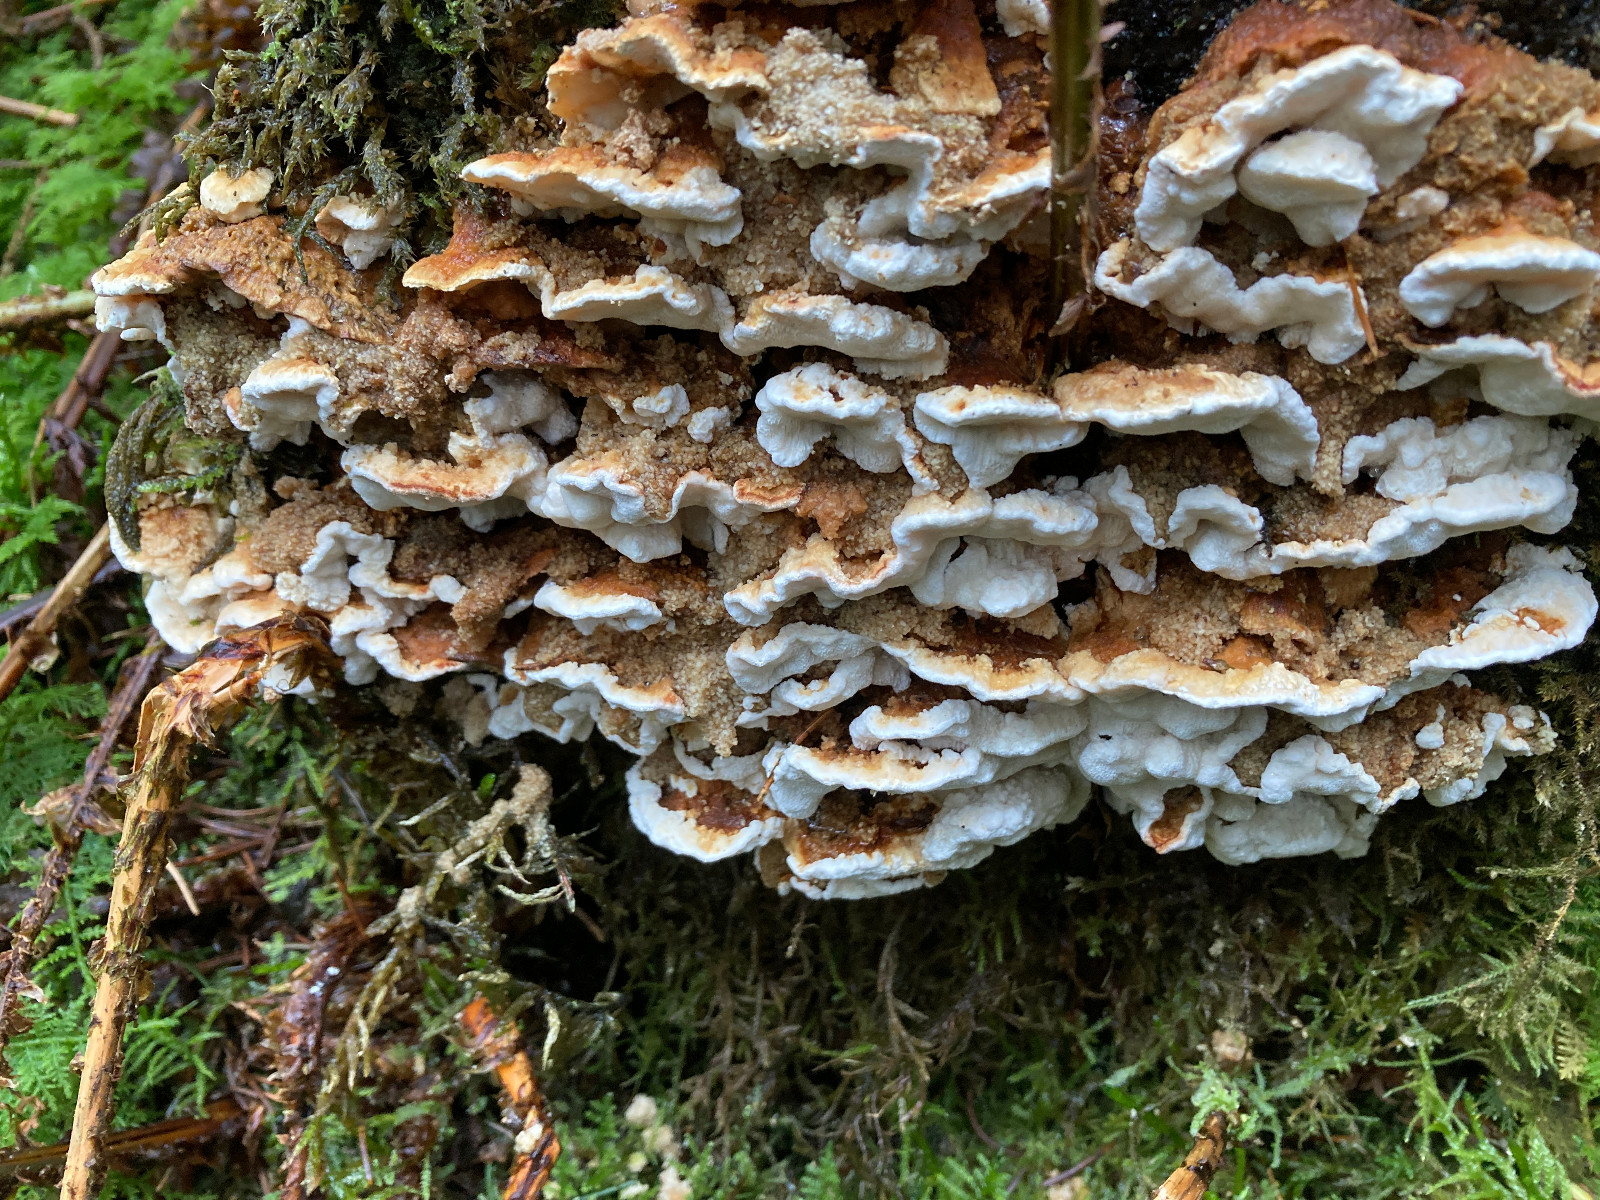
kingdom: Fungi
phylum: Basidiomycota
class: Agaricomycetes
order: Polyporales
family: Fomitopsidaceae
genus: Neoantrodia
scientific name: Neoantrodia serialis
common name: række-sejporesvamp
